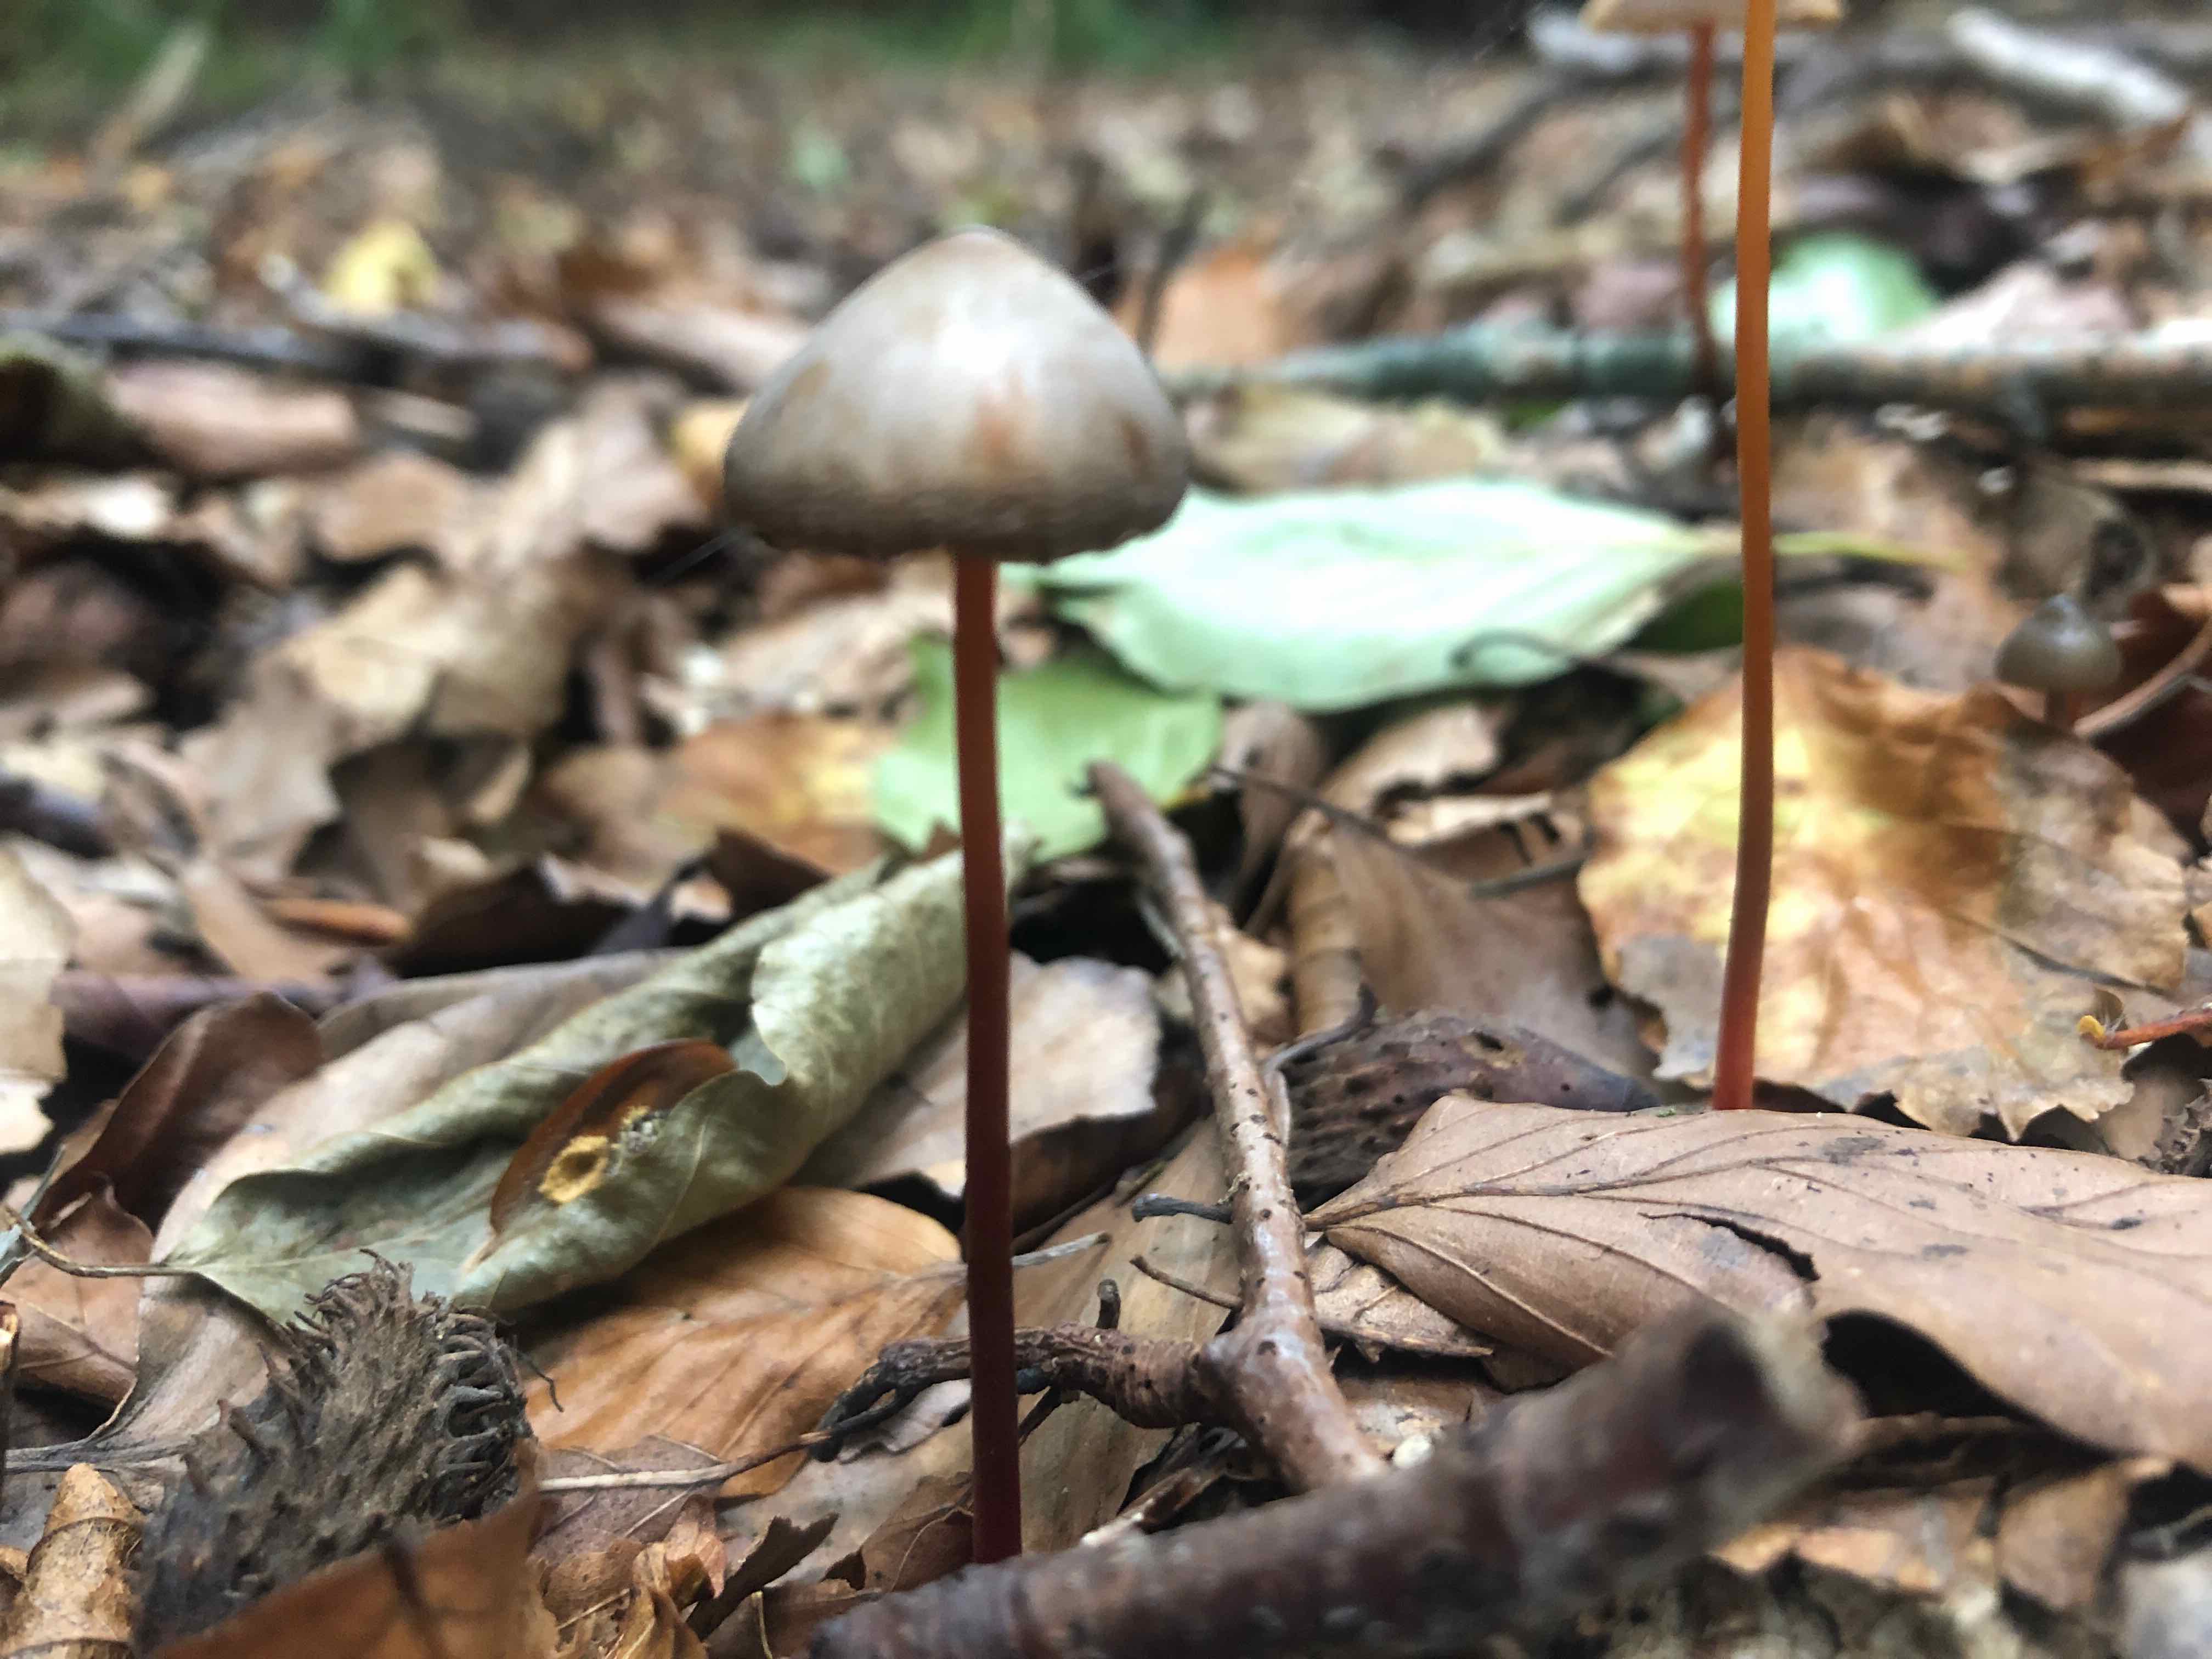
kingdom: Fungi
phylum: Basidiomycota
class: Agaricomycetes
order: Agaricales
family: Mycenaceae
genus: Mycena
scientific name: Mycena crocata
